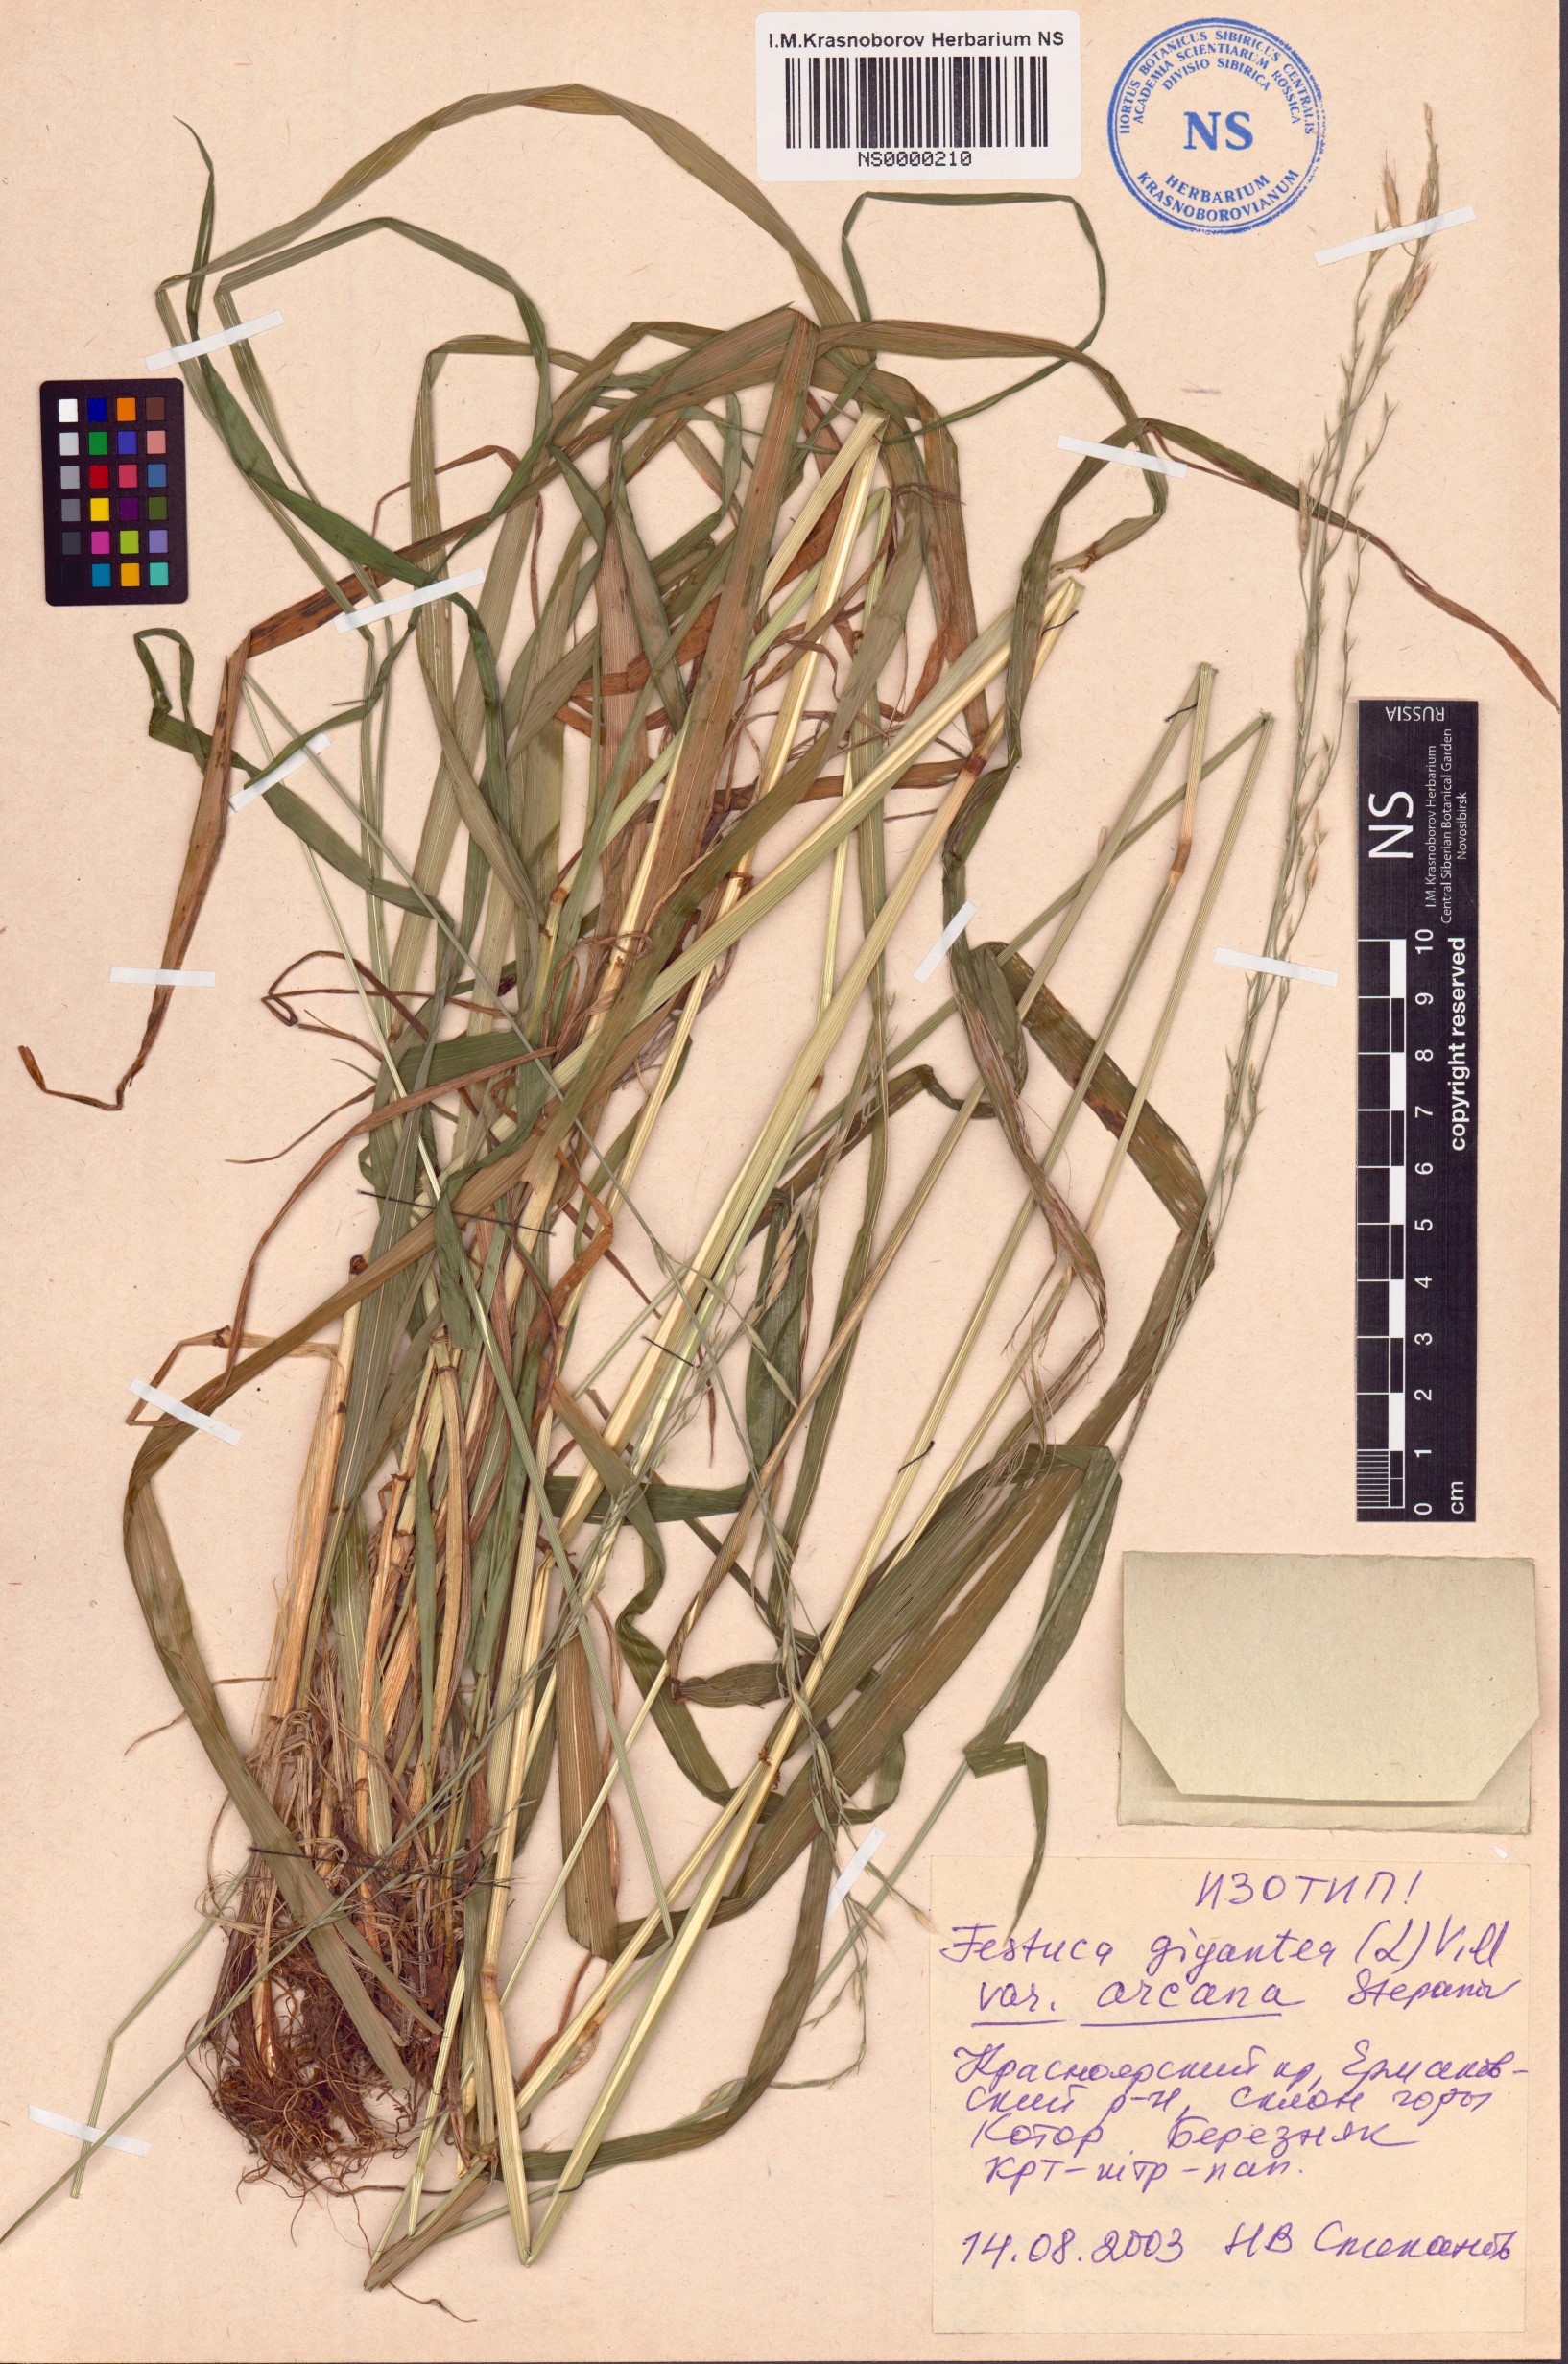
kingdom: Plantae
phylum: Tracheophyta
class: Liliopsida
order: Poales
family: Poaceae
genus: Lolium
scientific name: Lolium giganteum
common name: Giant fescue
